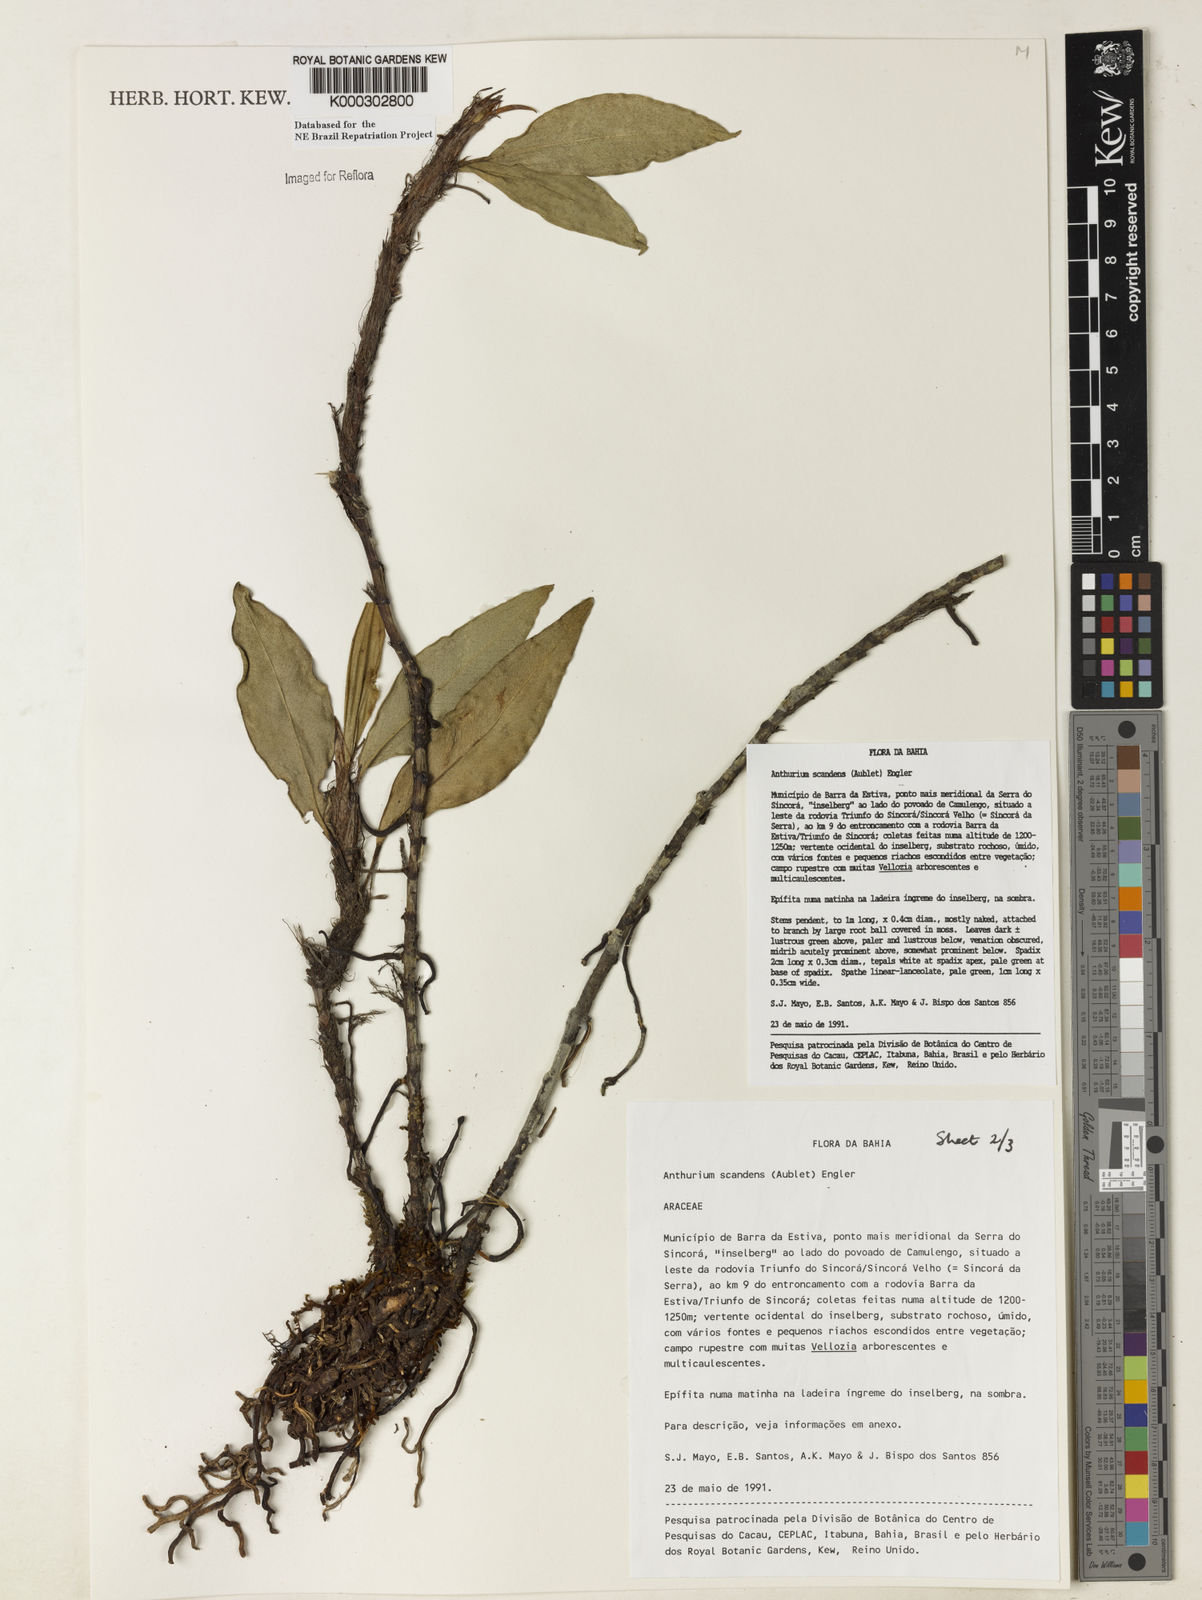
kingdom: Plantae
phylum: Tracheophyta
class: Liliopsida
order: Alismatales
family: Araceae
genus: Anthurium
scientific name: Anthurium scandens
